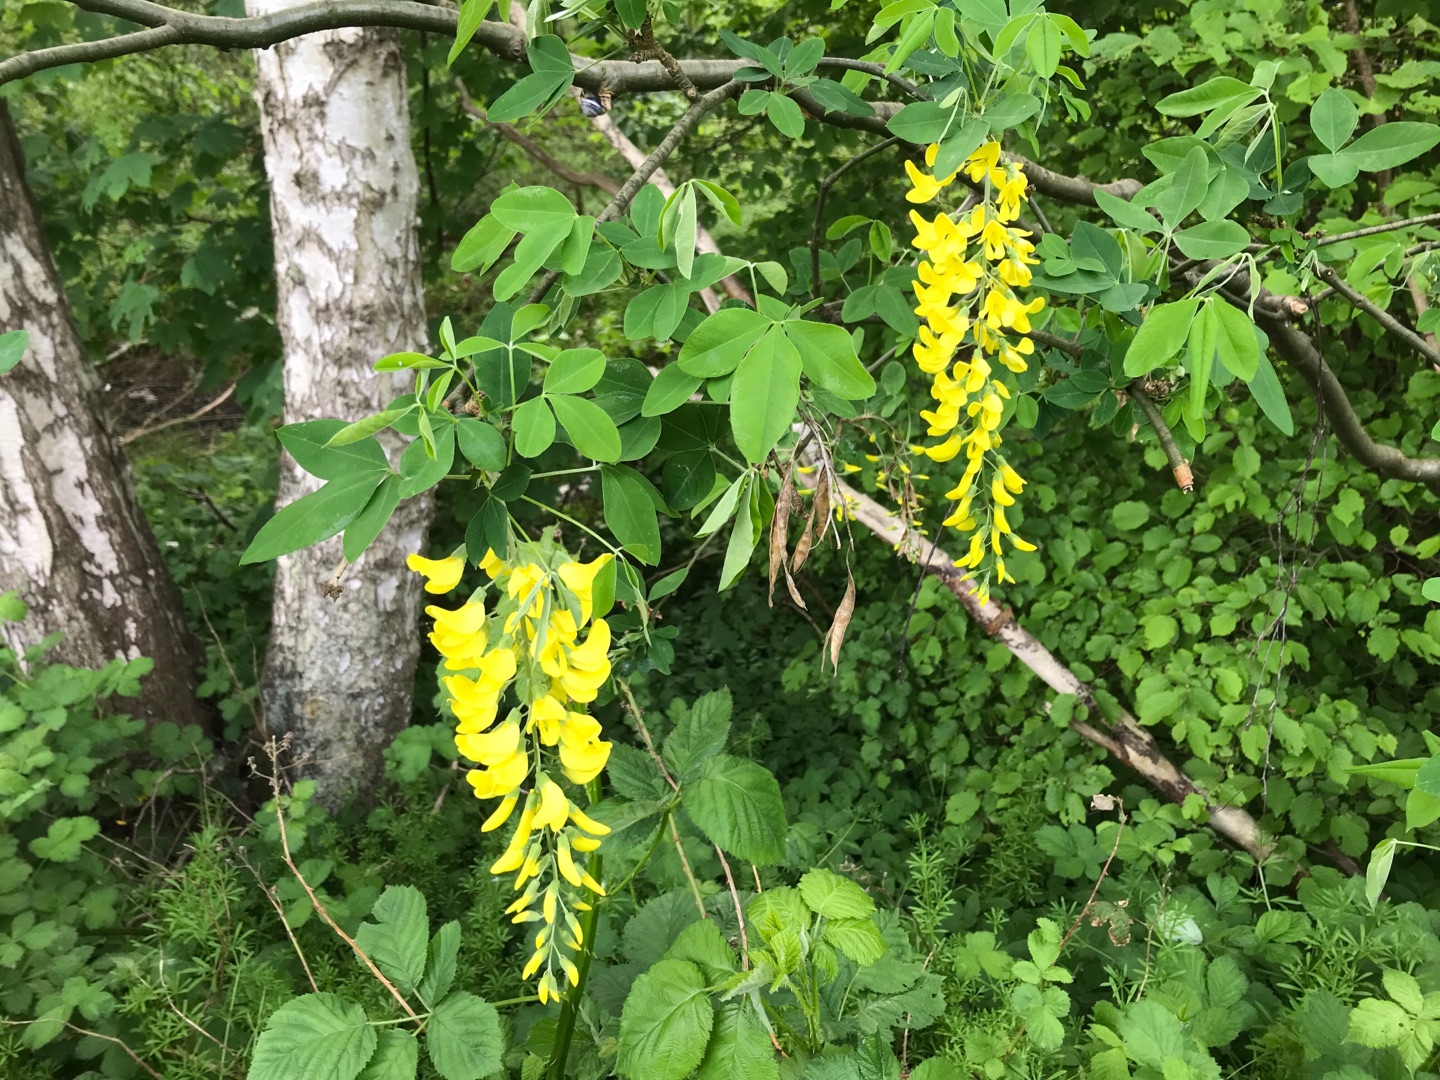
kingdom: Plantae
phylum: Tracheophyta
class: Magnoliopsida
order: Fabales
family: Fabaceae
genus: Laburnum
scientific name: Laburnum anagyroides
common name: Guldregn
